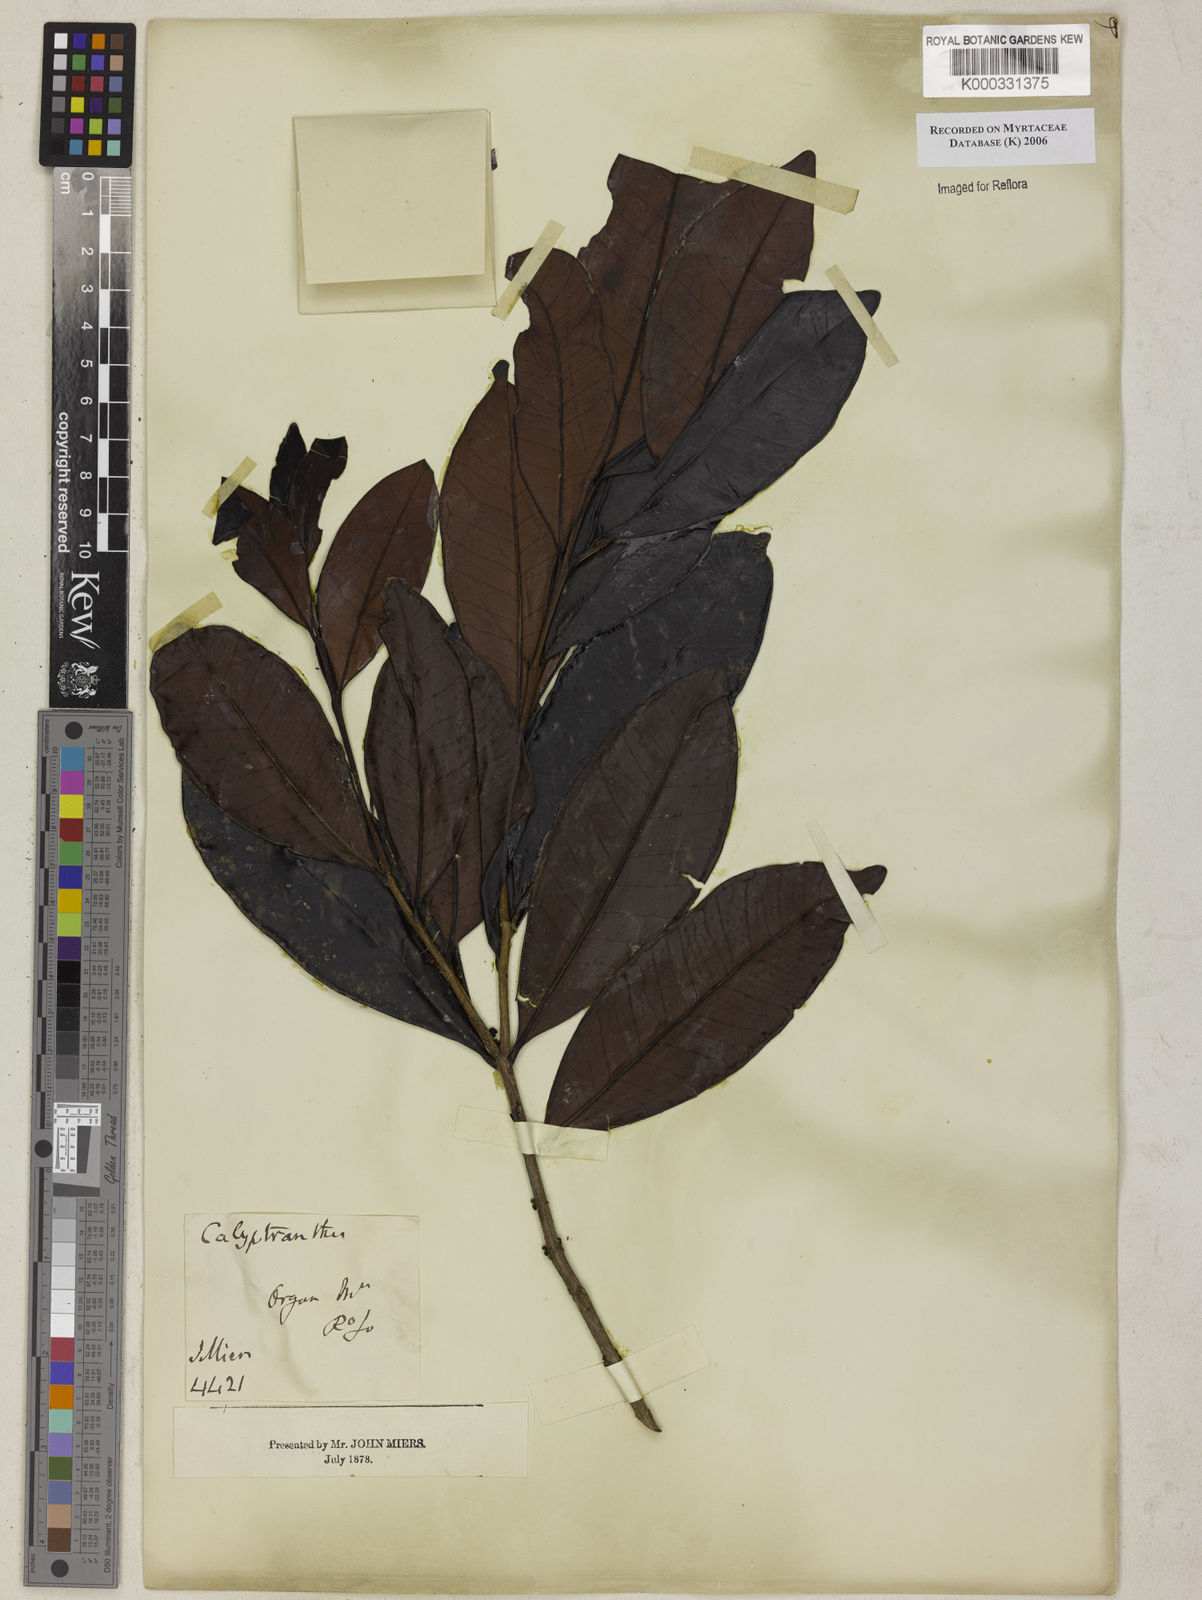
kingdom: Plantae
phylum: Tracheophyta
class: Magnoliopsida
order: Myrtales
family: Myrtaceae
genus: Calyptranthes
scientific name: Calyptranthes
